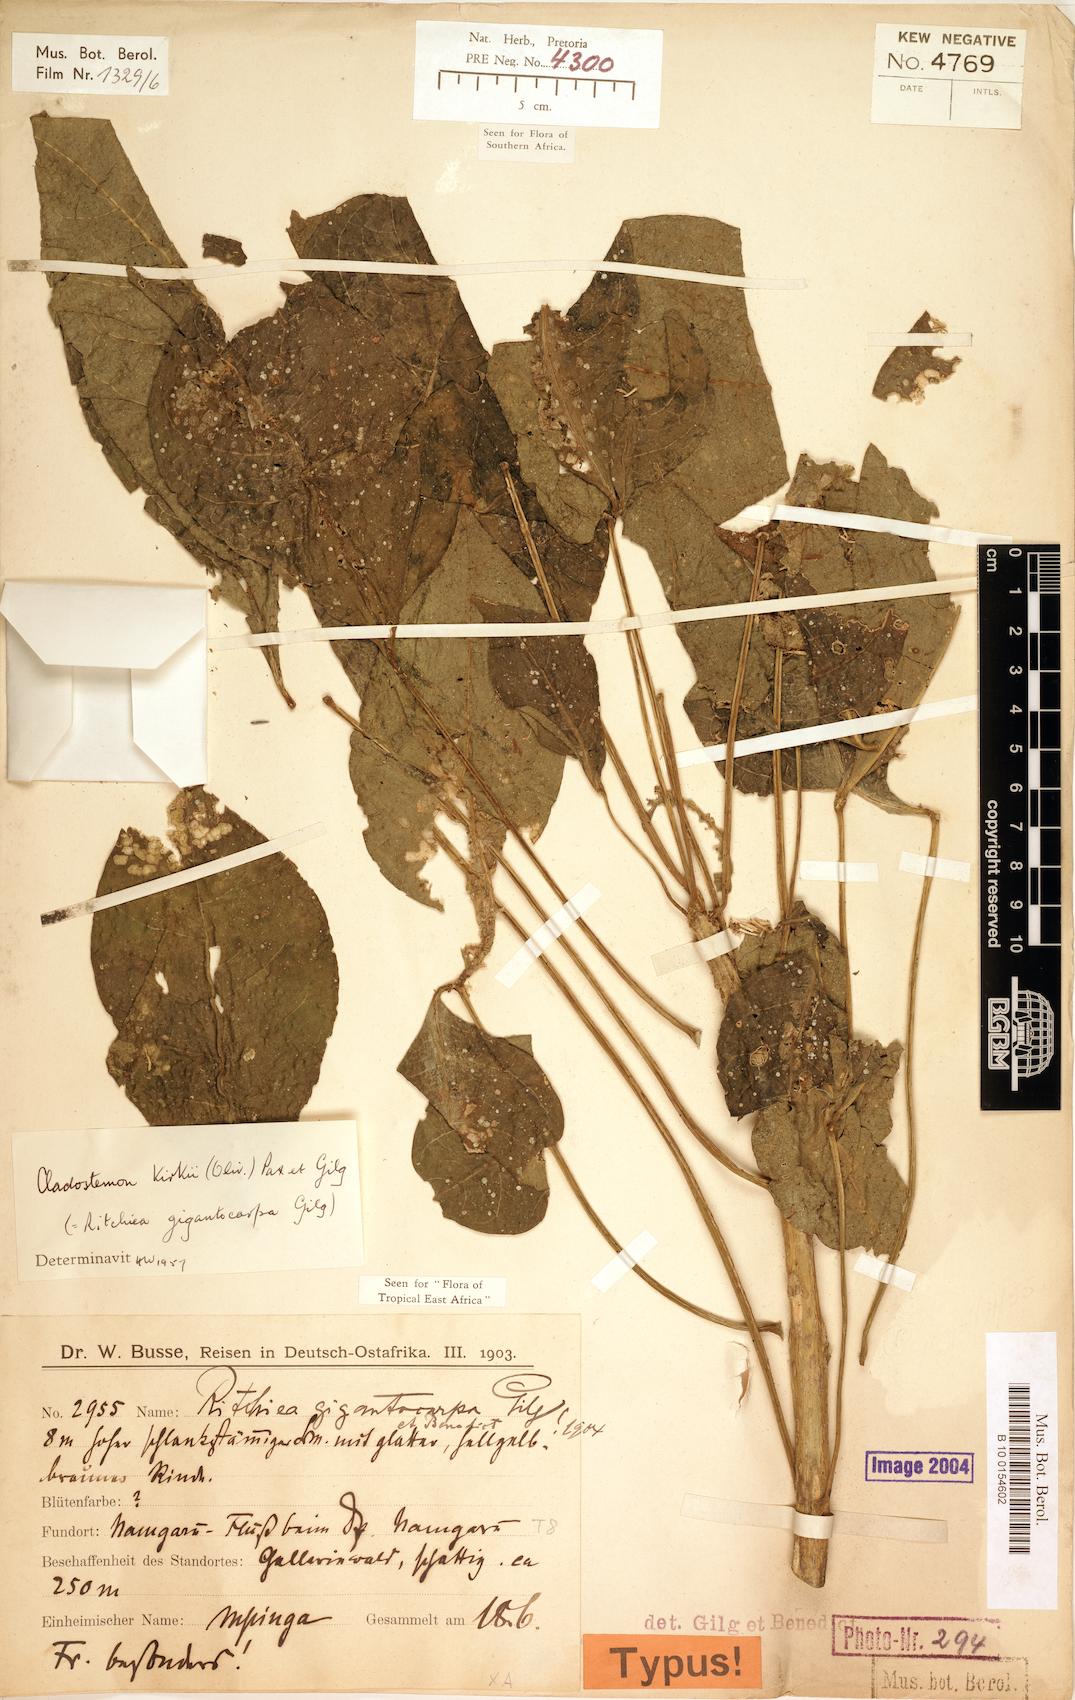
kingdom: Plantae
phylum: Tracheophyta
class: Magnoliopsida
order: Brassicales
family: Capparaceae
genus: Cladostemon
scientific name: Cladostemon kirkii
